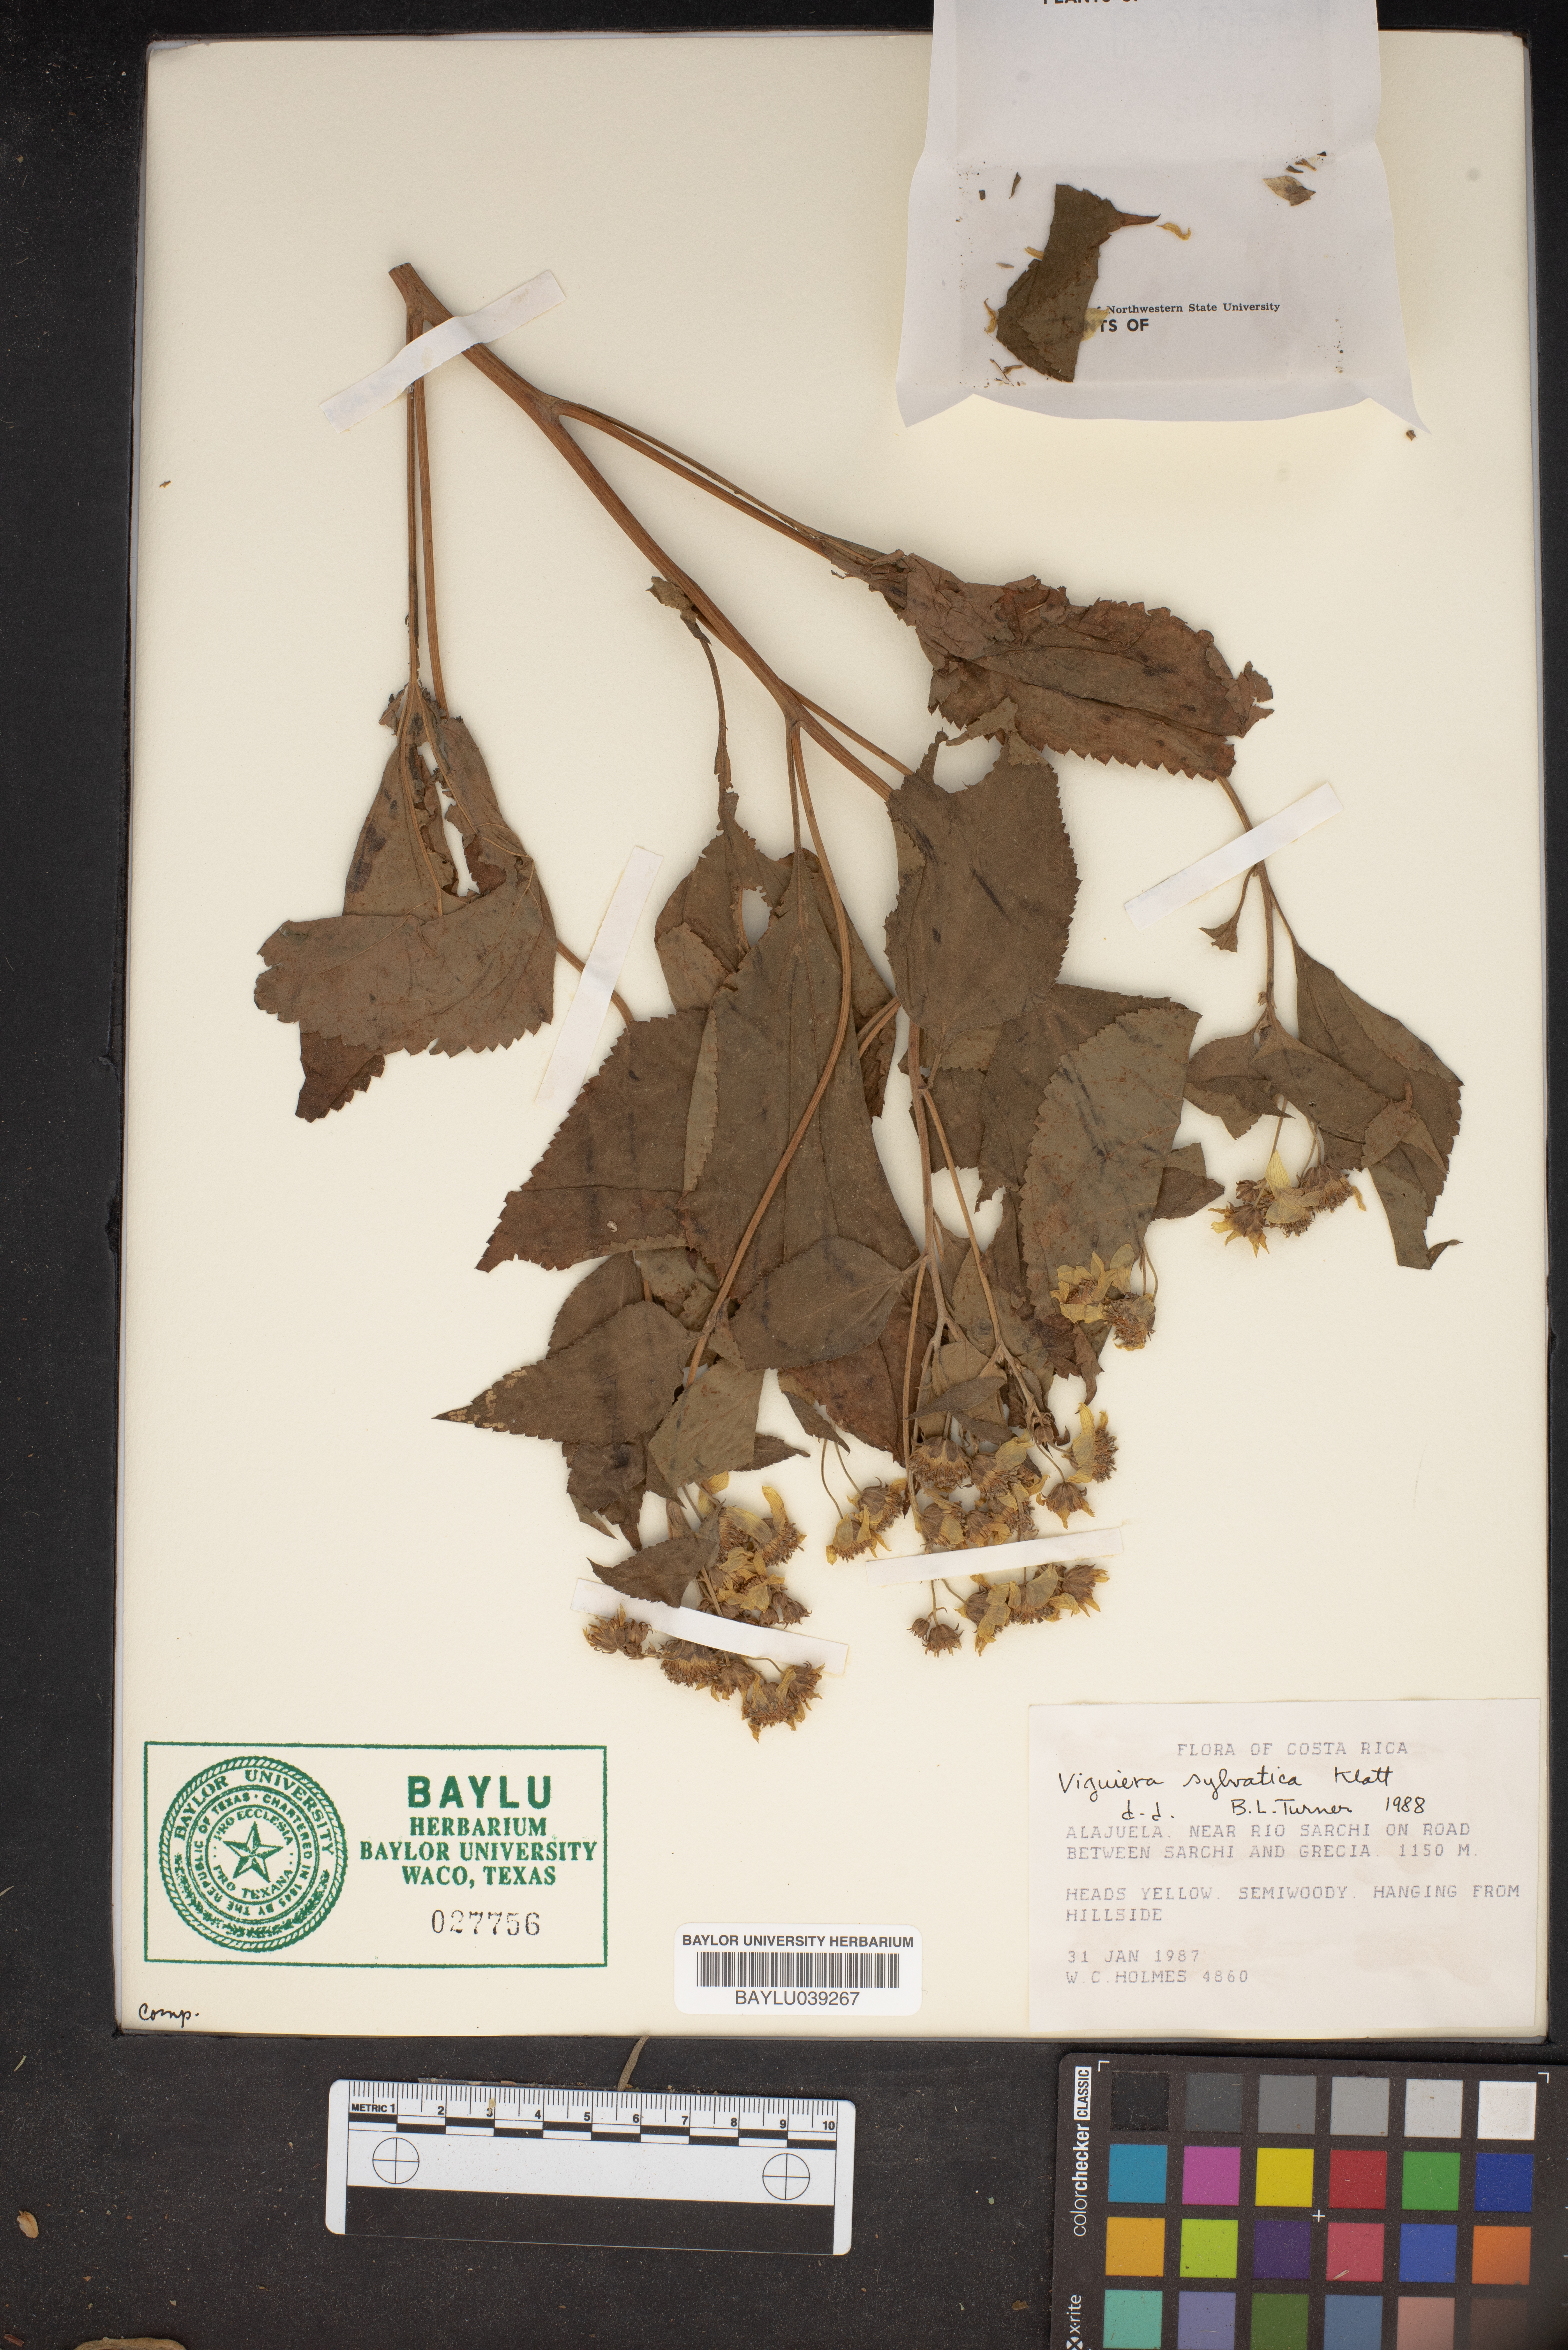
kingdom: Plantae
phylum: Tracheophyta
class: Magnoliopsida
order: Asterales
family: Asteraceae
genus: Dendroviguiera
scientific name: Dendroviguiera sylvatica
